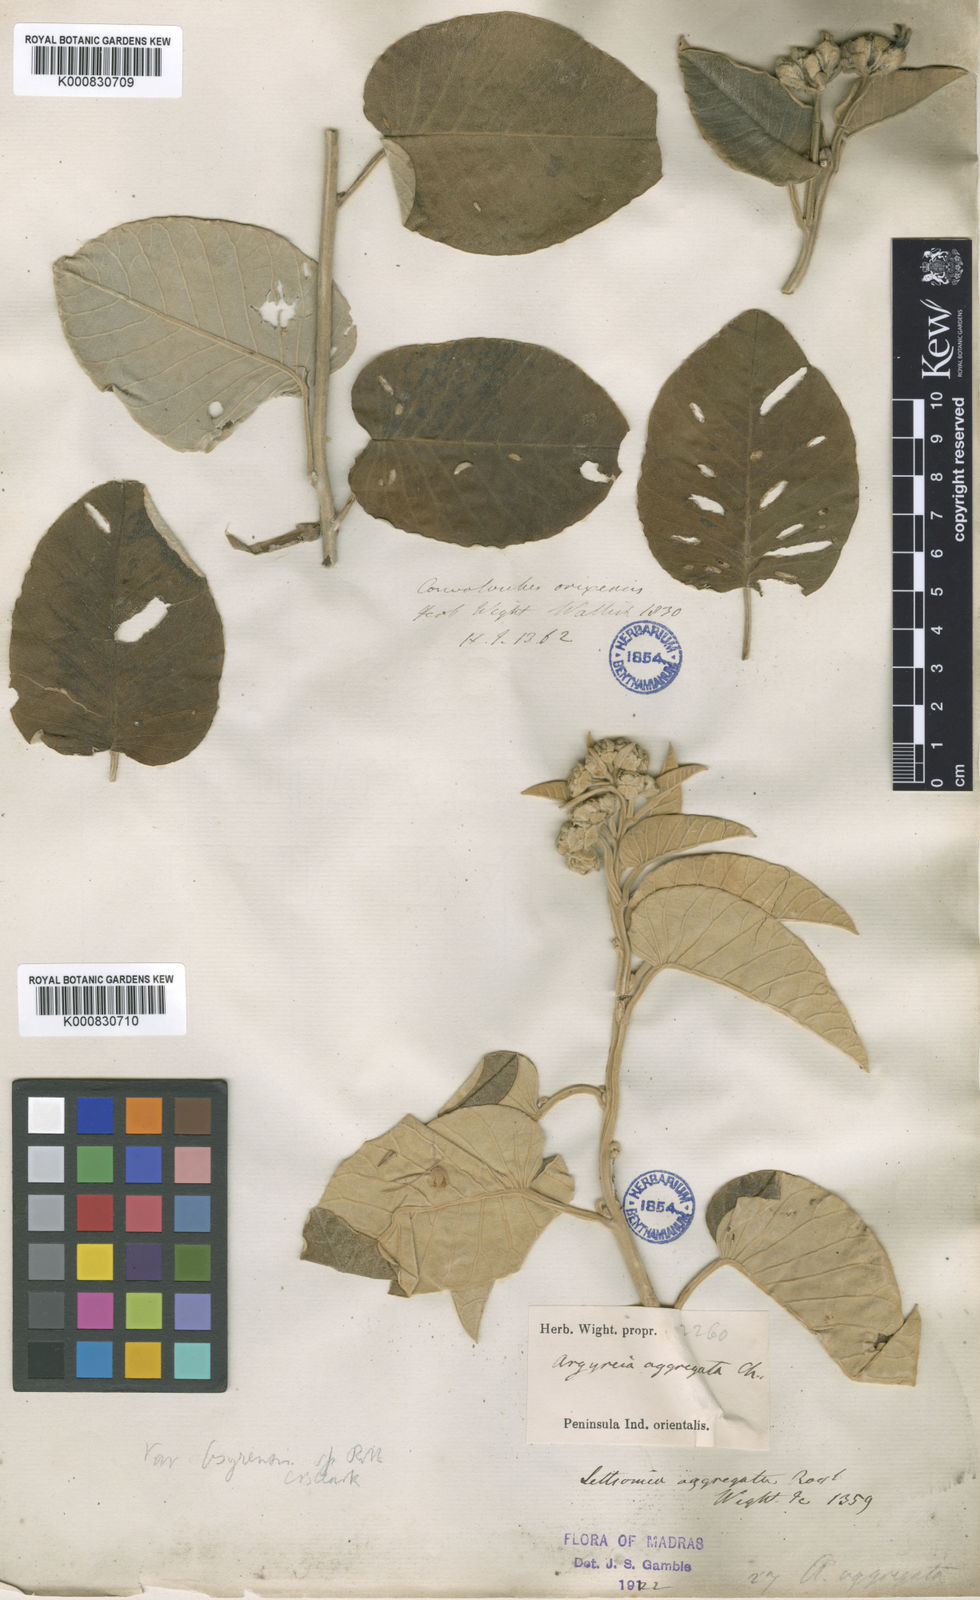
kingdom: Plantae
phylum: Tracheophyta
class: Magnoliopsida
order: Solanales
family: Convolvulaceae
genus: Argyreia
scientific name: Argyreia osyrensis
